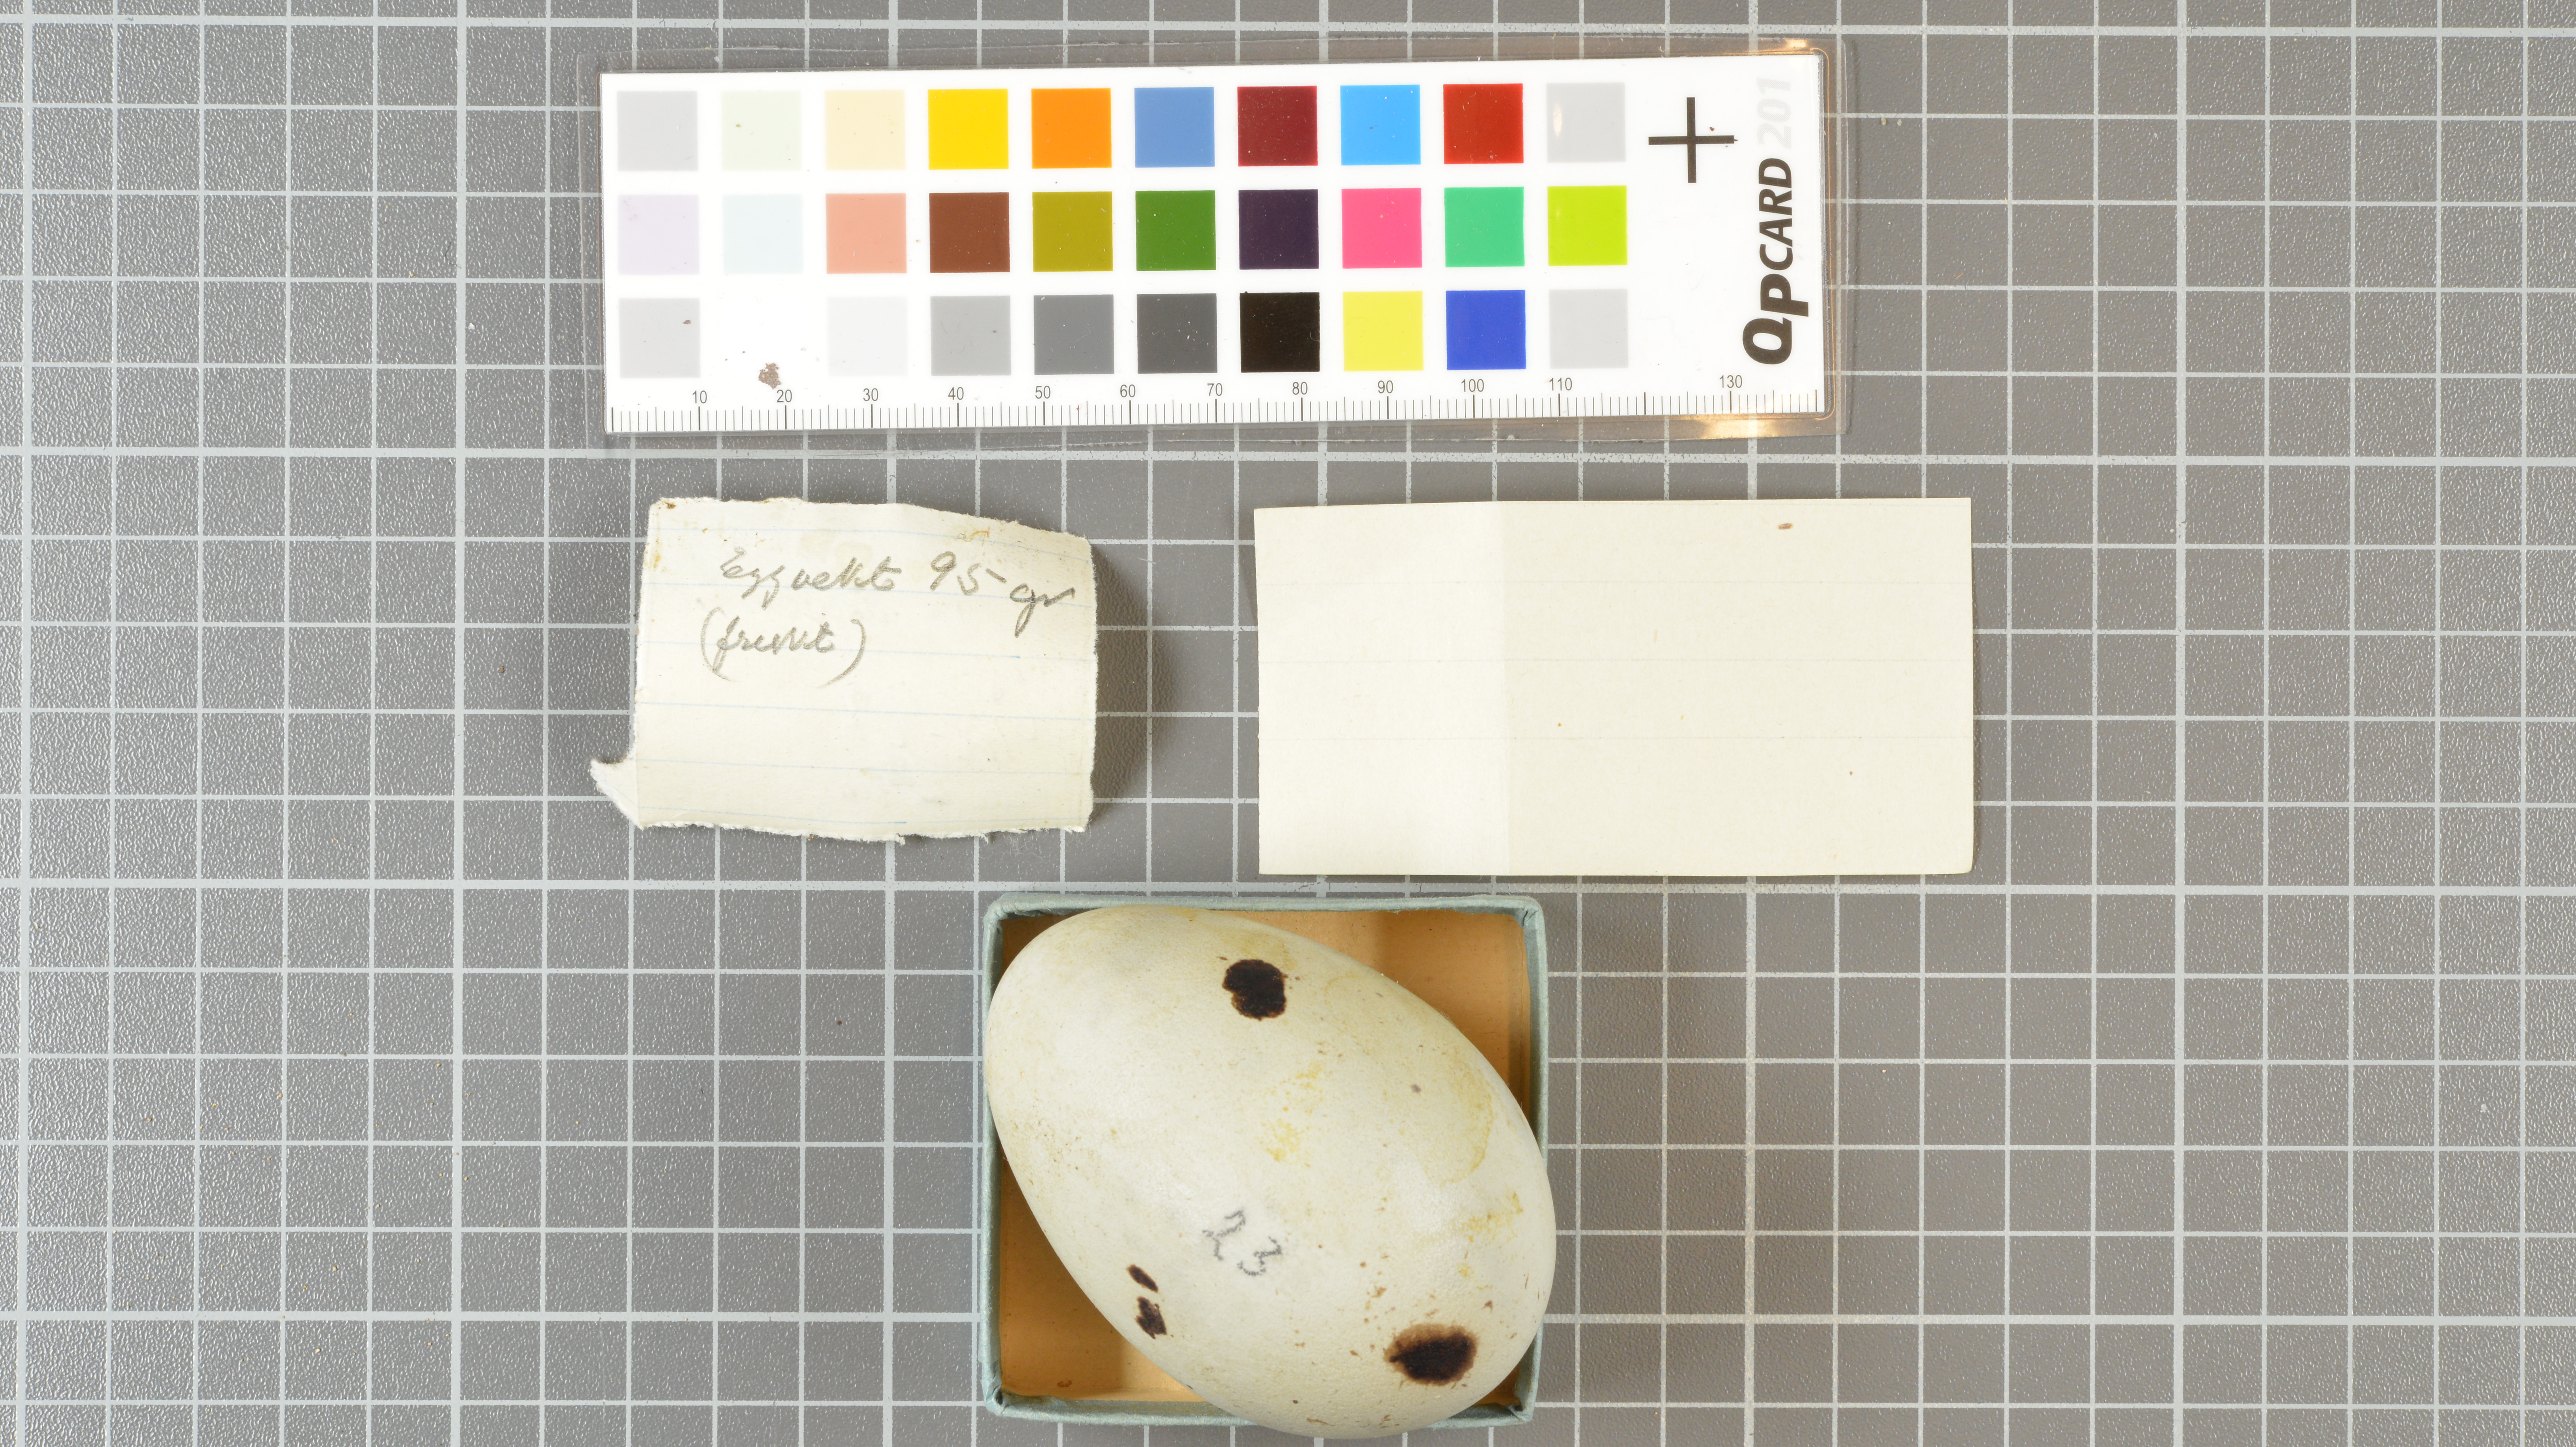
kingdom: Animalia
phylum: Chordata
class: Aves
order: Charadriiformes
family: Laridae
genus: Larus
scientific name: Larus dominicanus
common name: Kelp gull
